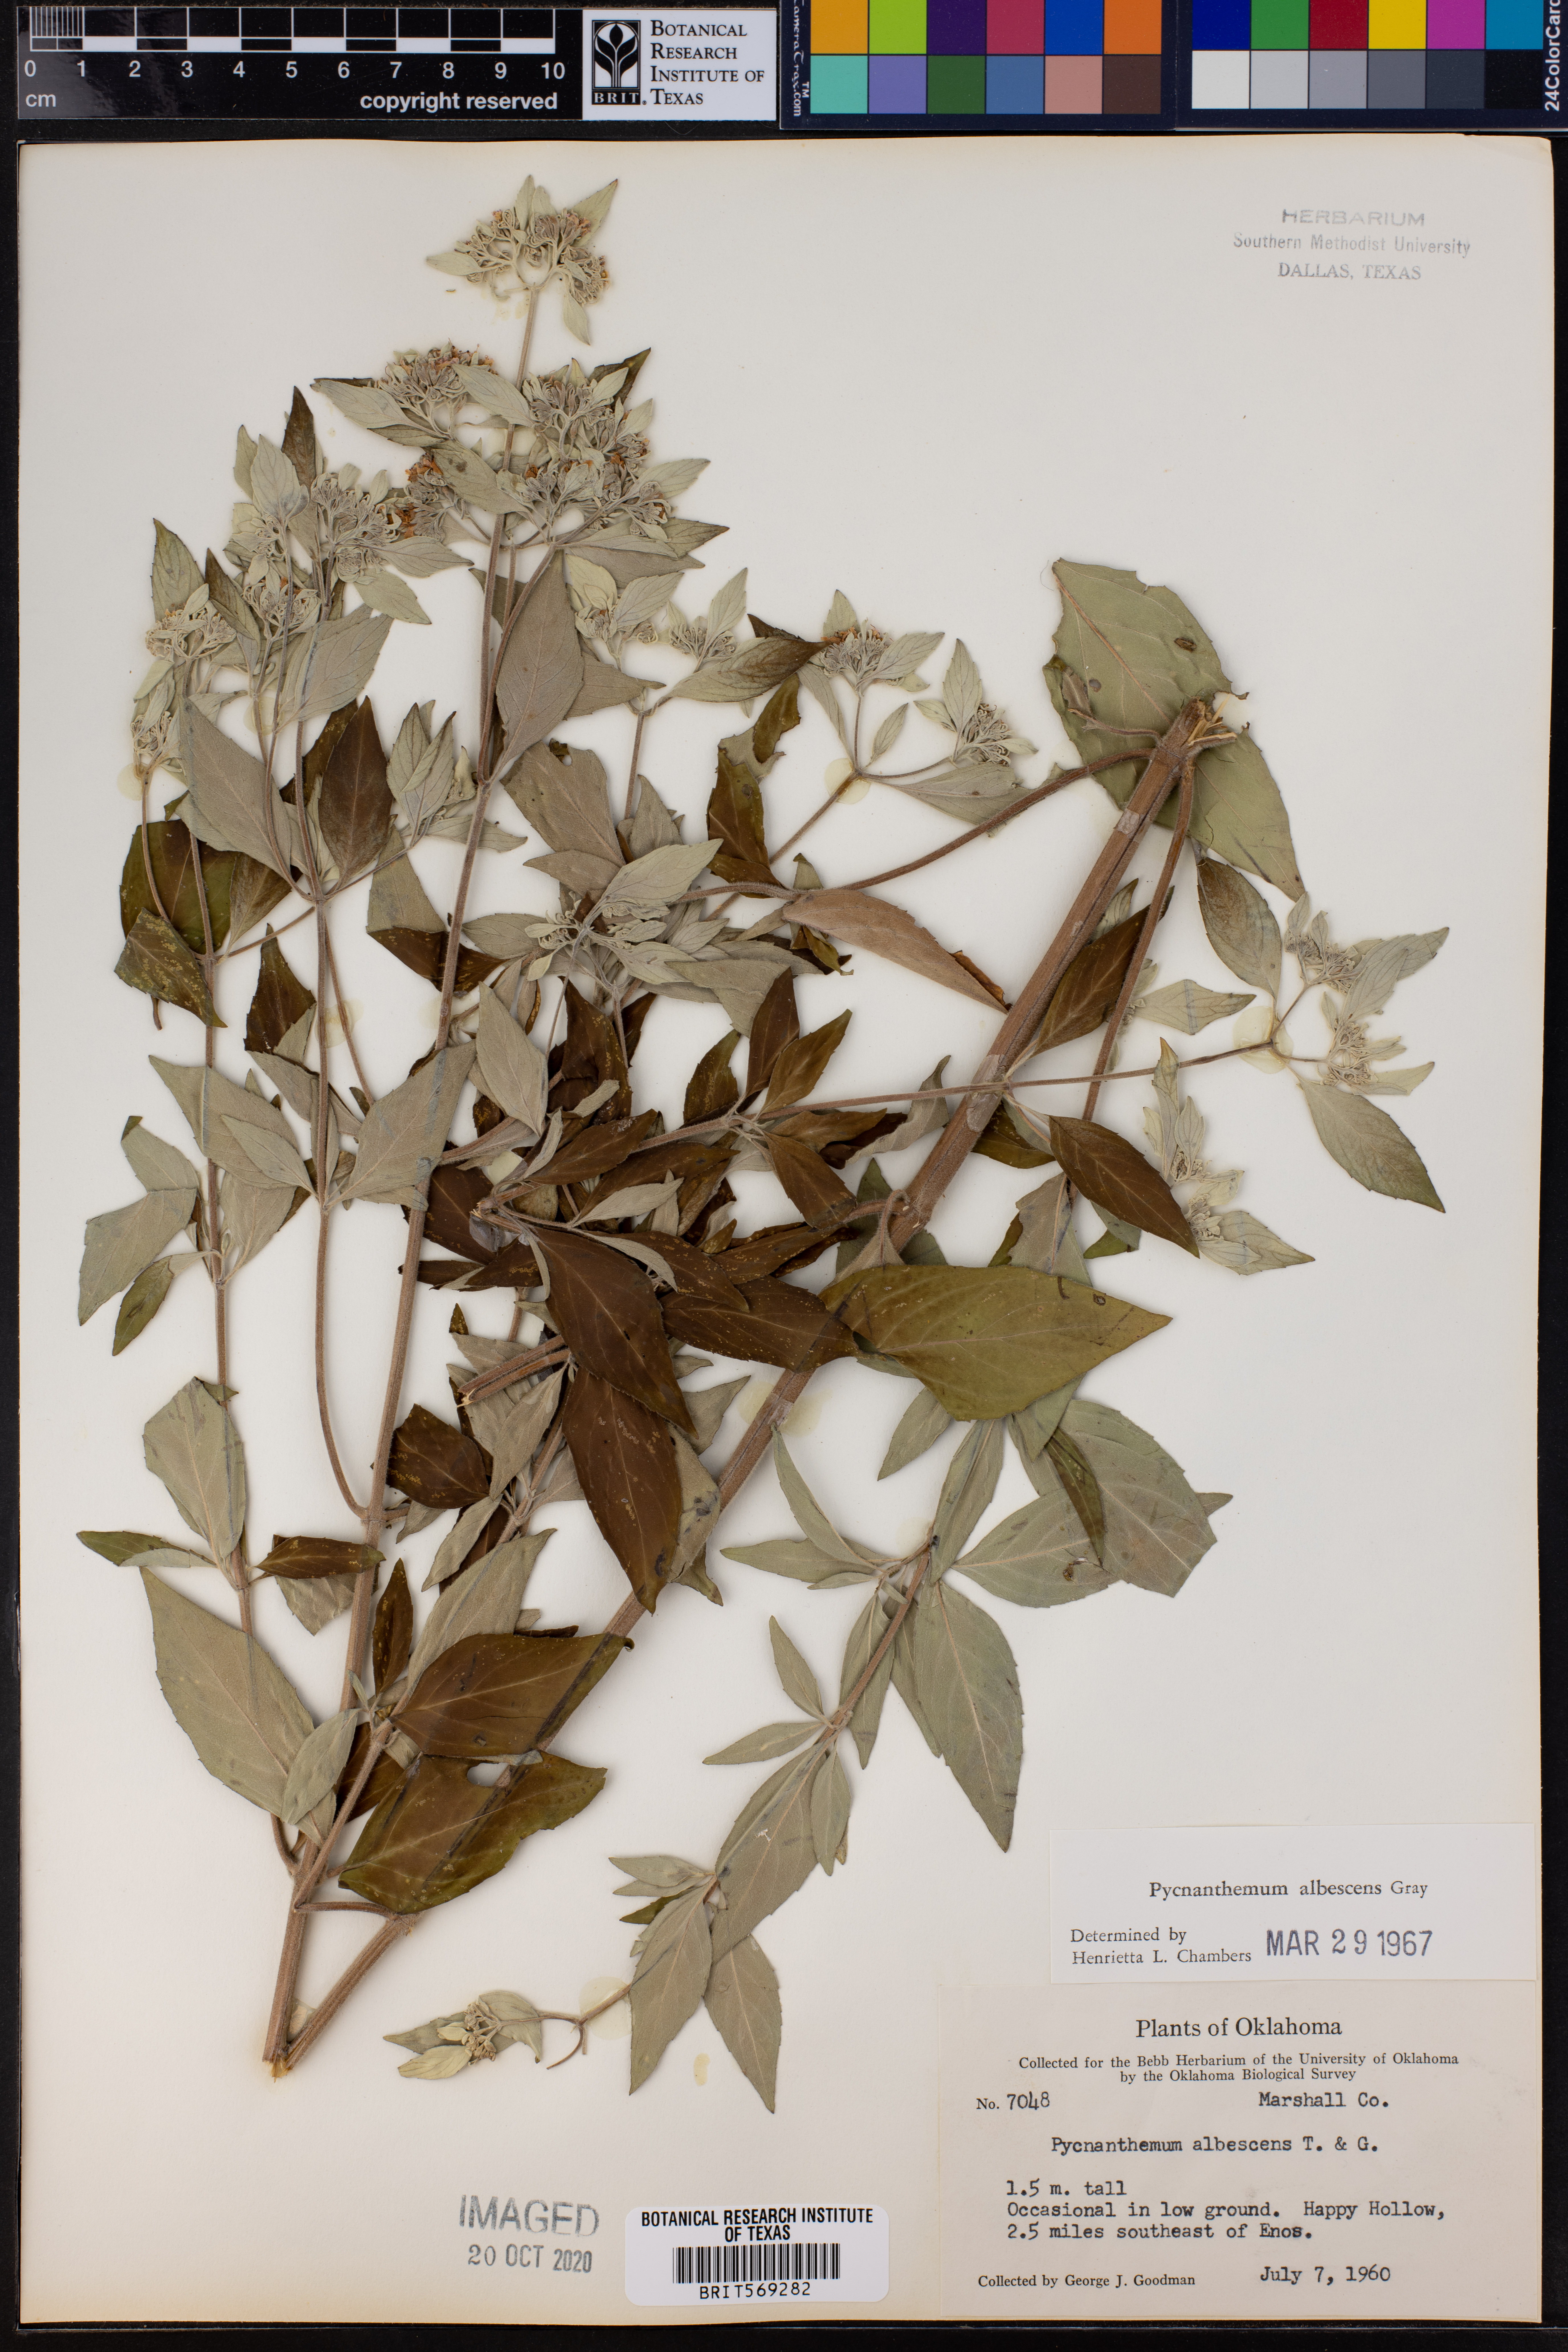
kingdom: Plantae
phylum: Tracheophyta
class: Magnoliopsida
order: Lamiales
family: Lamiaceae
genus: Pycnanthemum
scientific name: Pycnanthemum albescens
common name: White-leaf mountain-mint
